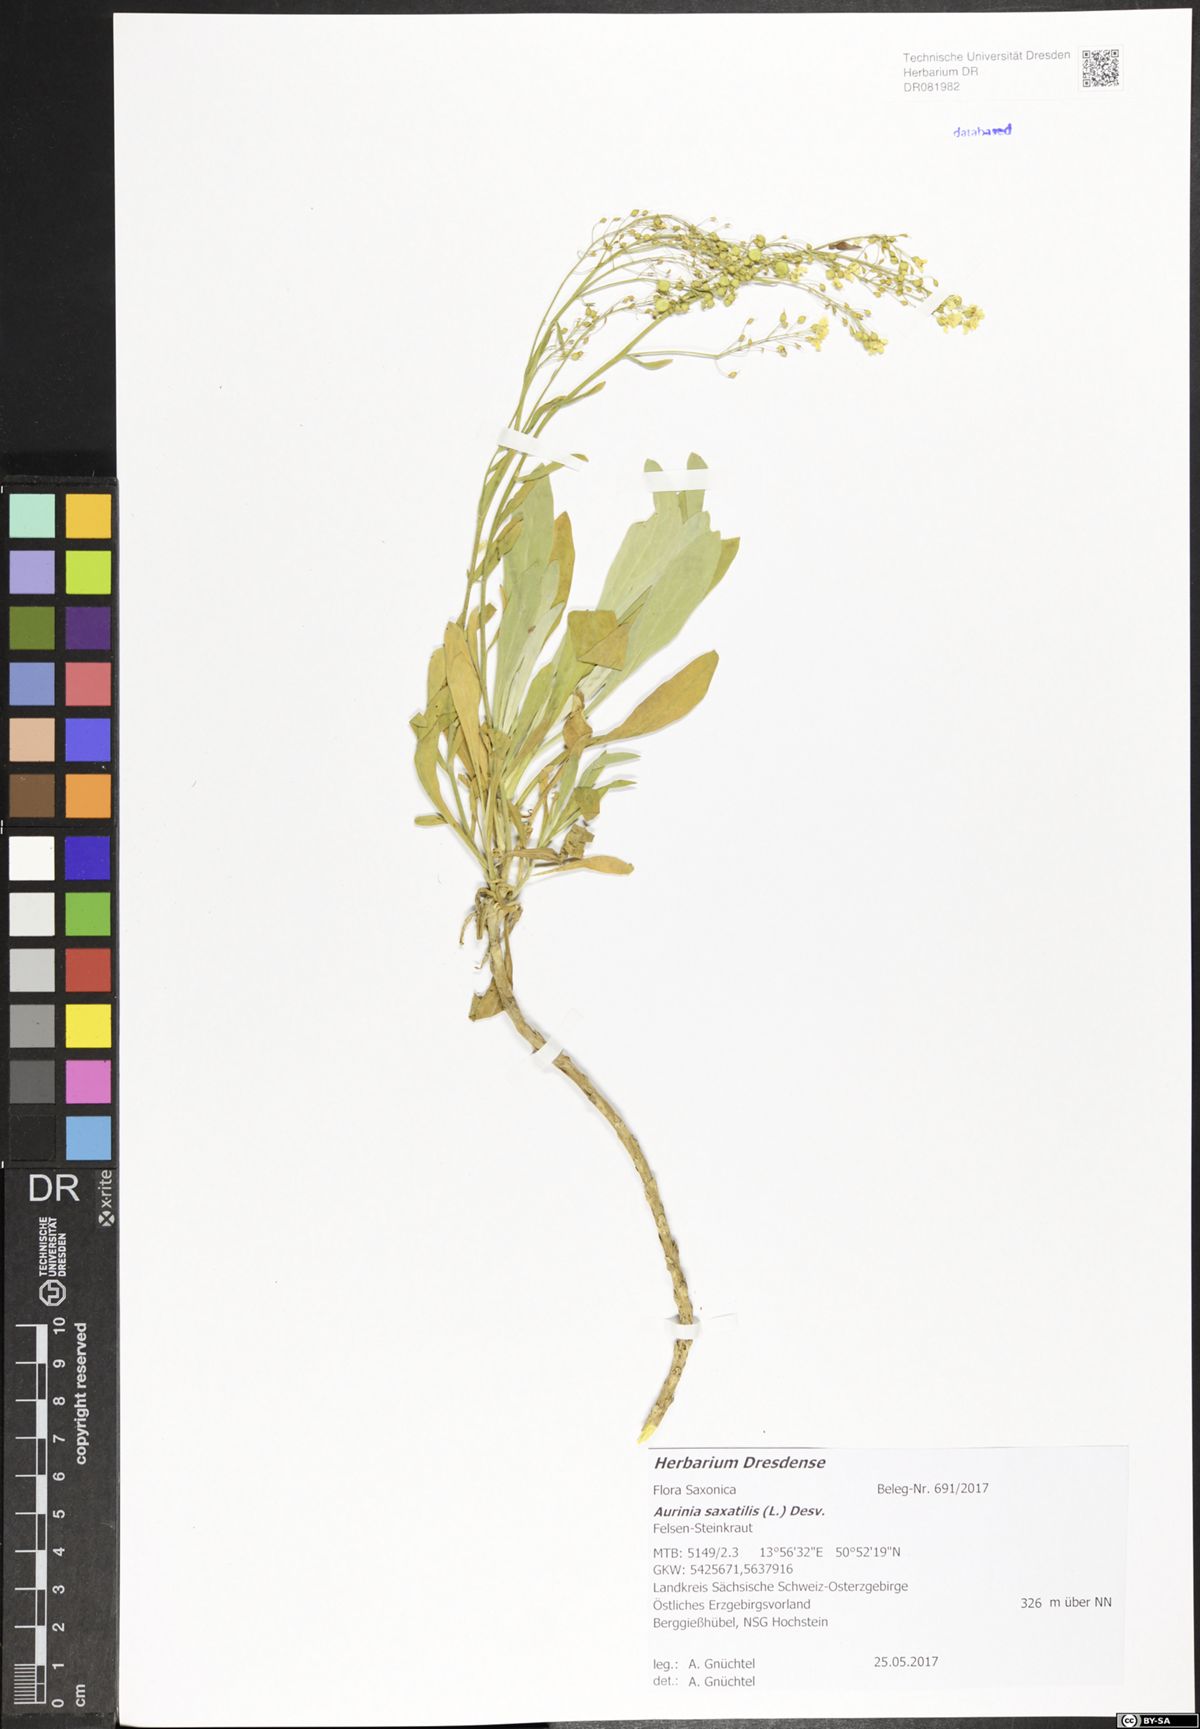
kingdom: Plantae
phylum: Tracheophyta
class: Magnoliopsida
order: Brassicales
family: Brassicaceae
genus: Aurinia
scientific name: Aurinia saxatilis
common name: Golden-tuft alyssum
